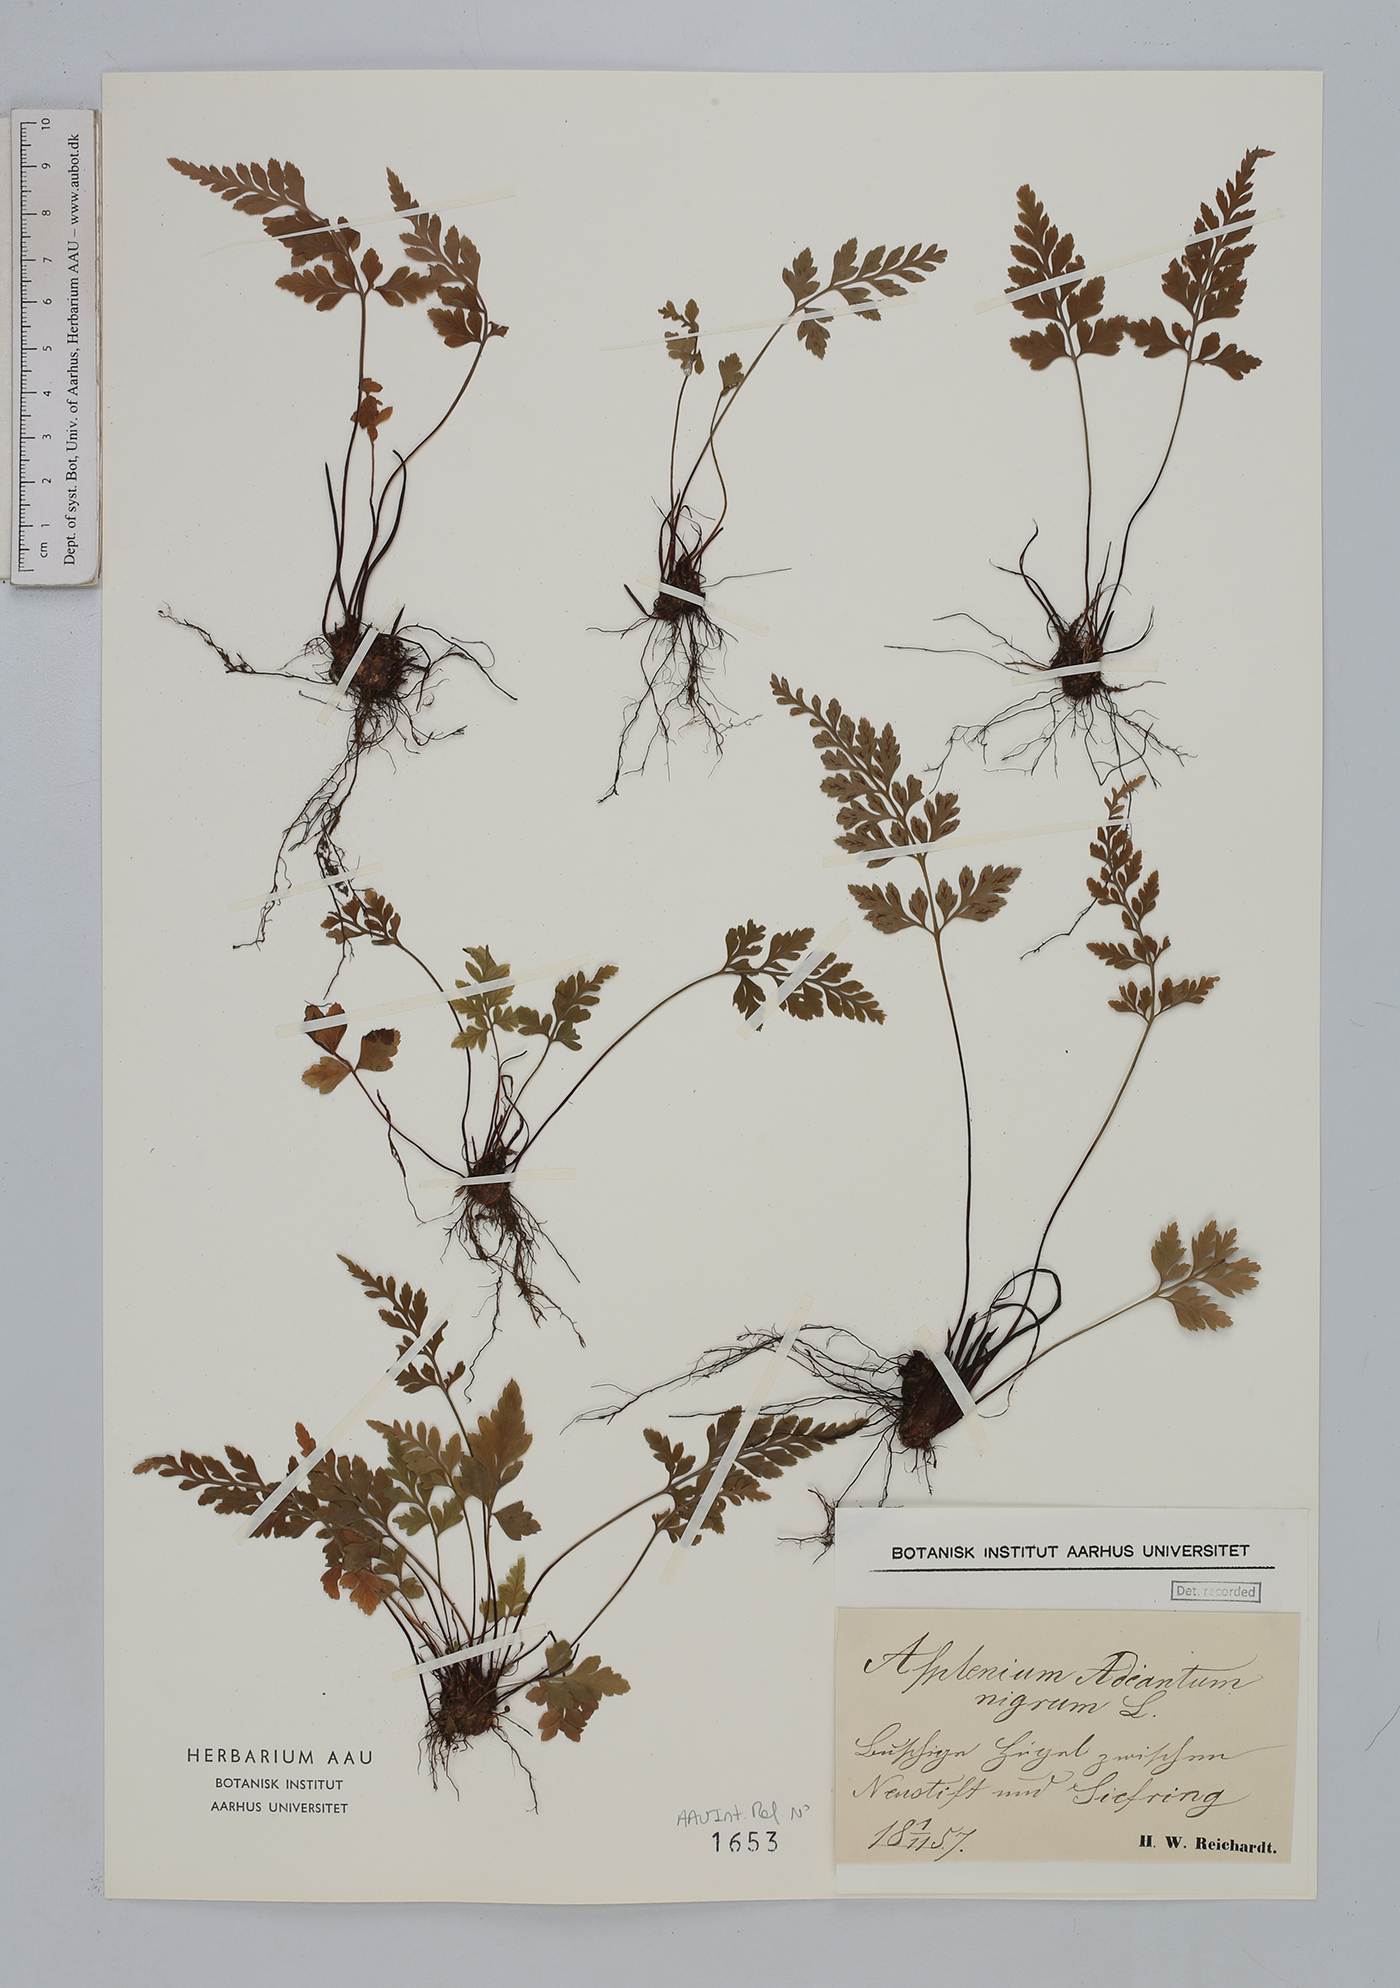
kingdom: Plantae
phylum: Tracheophyta
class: Polypodiopsida
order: Polypodiales
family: Aspleniaceae
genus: Asplenium
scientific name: Asplenium adiantum-nigrum
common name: Black spleenwort
